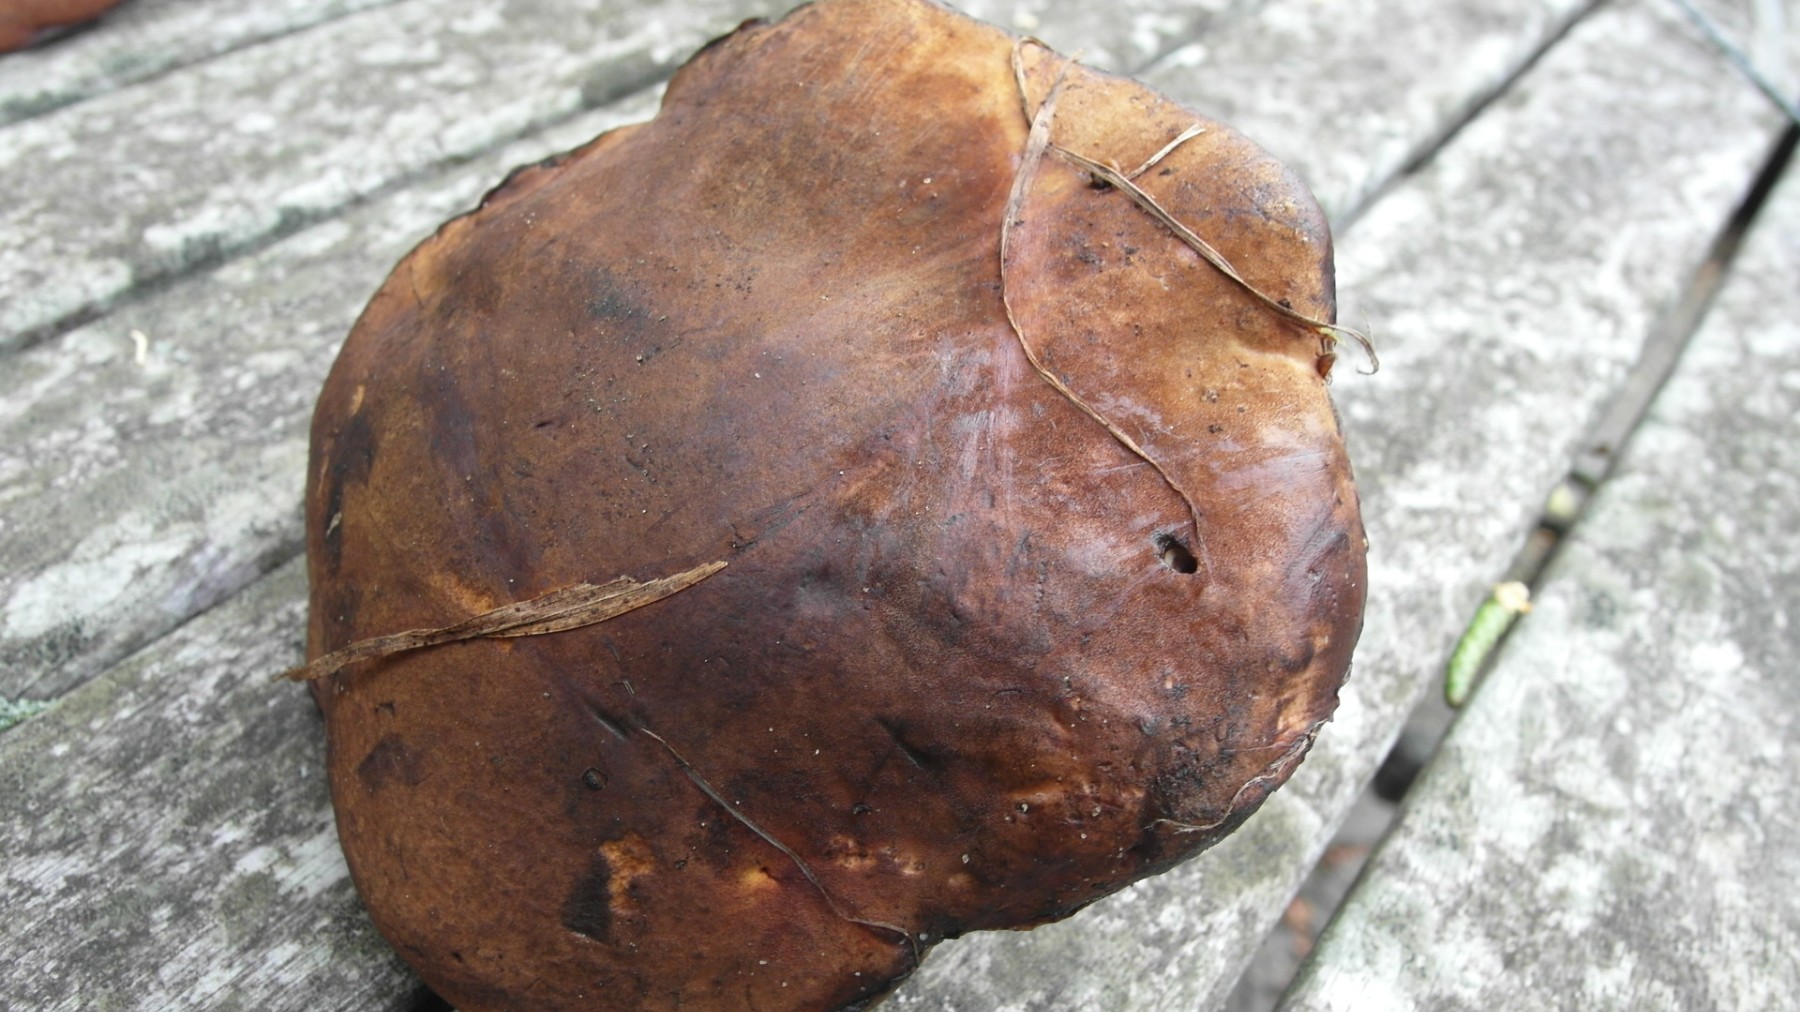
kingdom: Fungi
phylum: Basidiomycota
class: Agaricomycetes
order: Boletales
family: Boletaceae
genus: Neoboletus
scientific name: Neoboletus erythropus
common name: punktstokket indigorørhat
